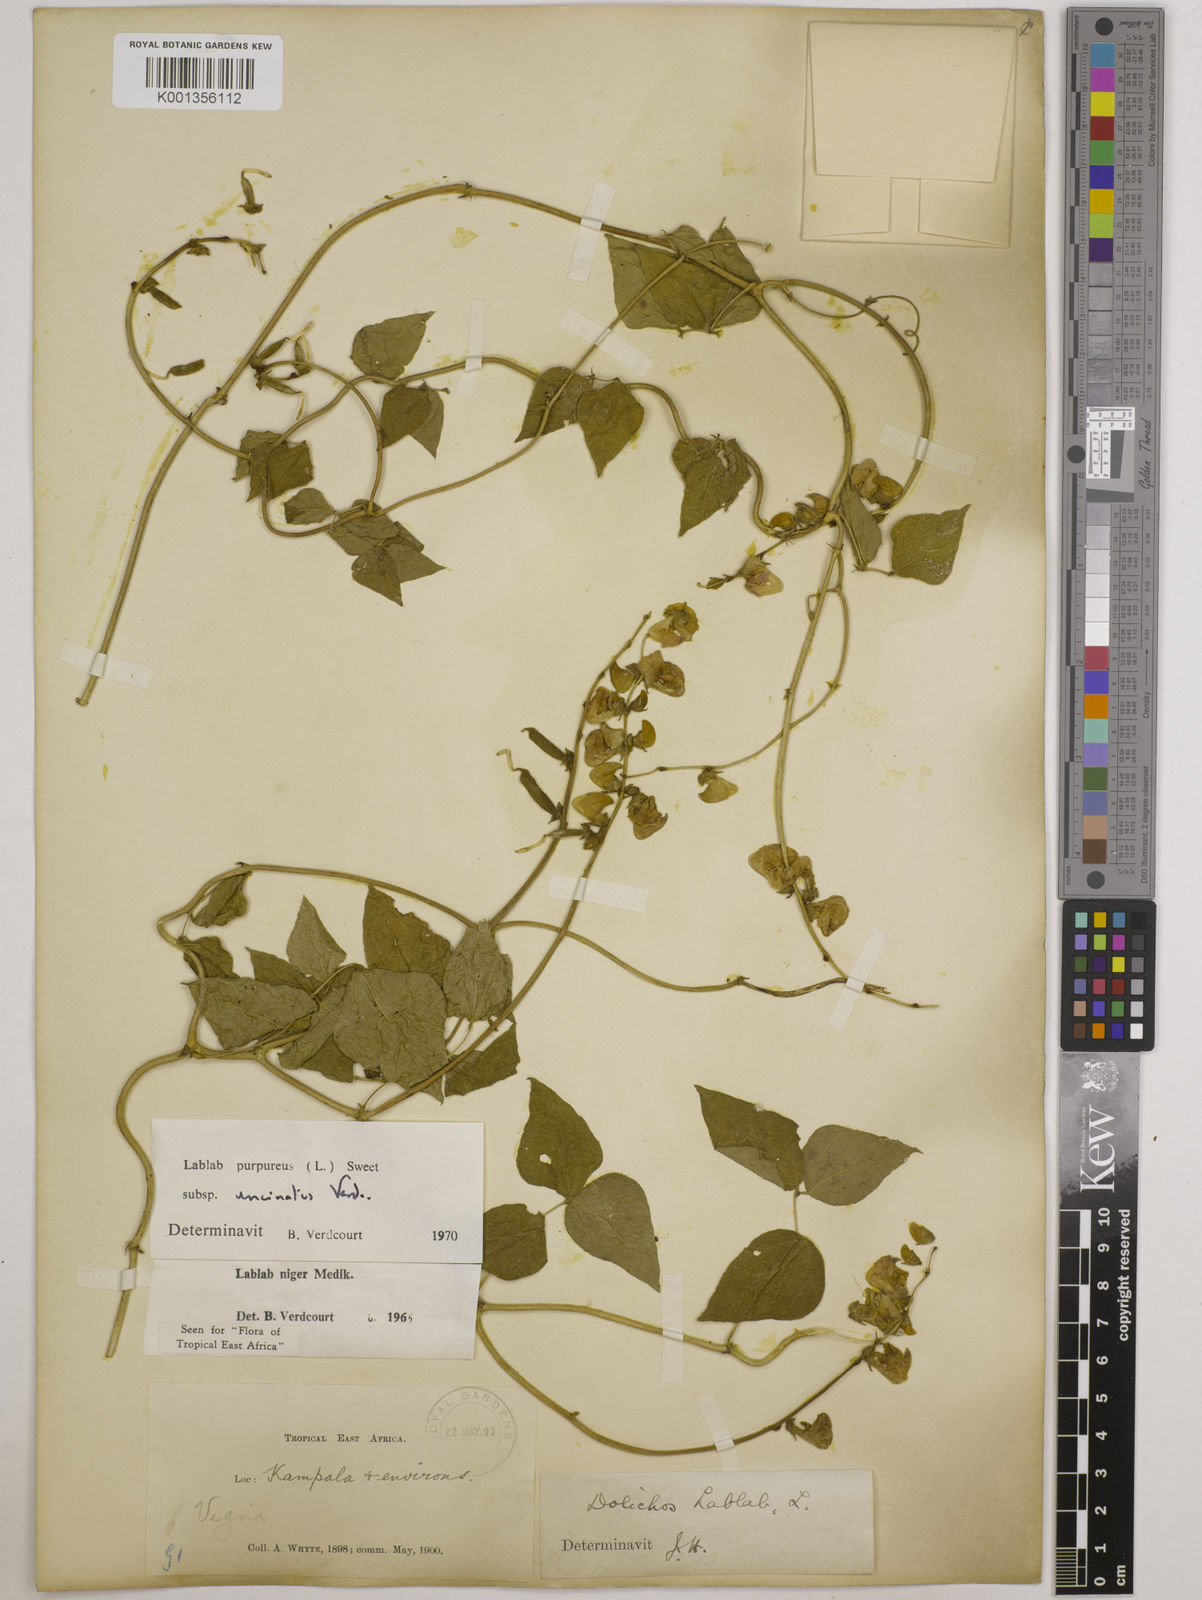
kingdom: Plantae
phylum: Tracheophyta
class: Magnoliopsida
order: Fabales
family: Fabaceae
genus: Lablab
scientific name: Lablab purpureus
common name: Lablab-bean
